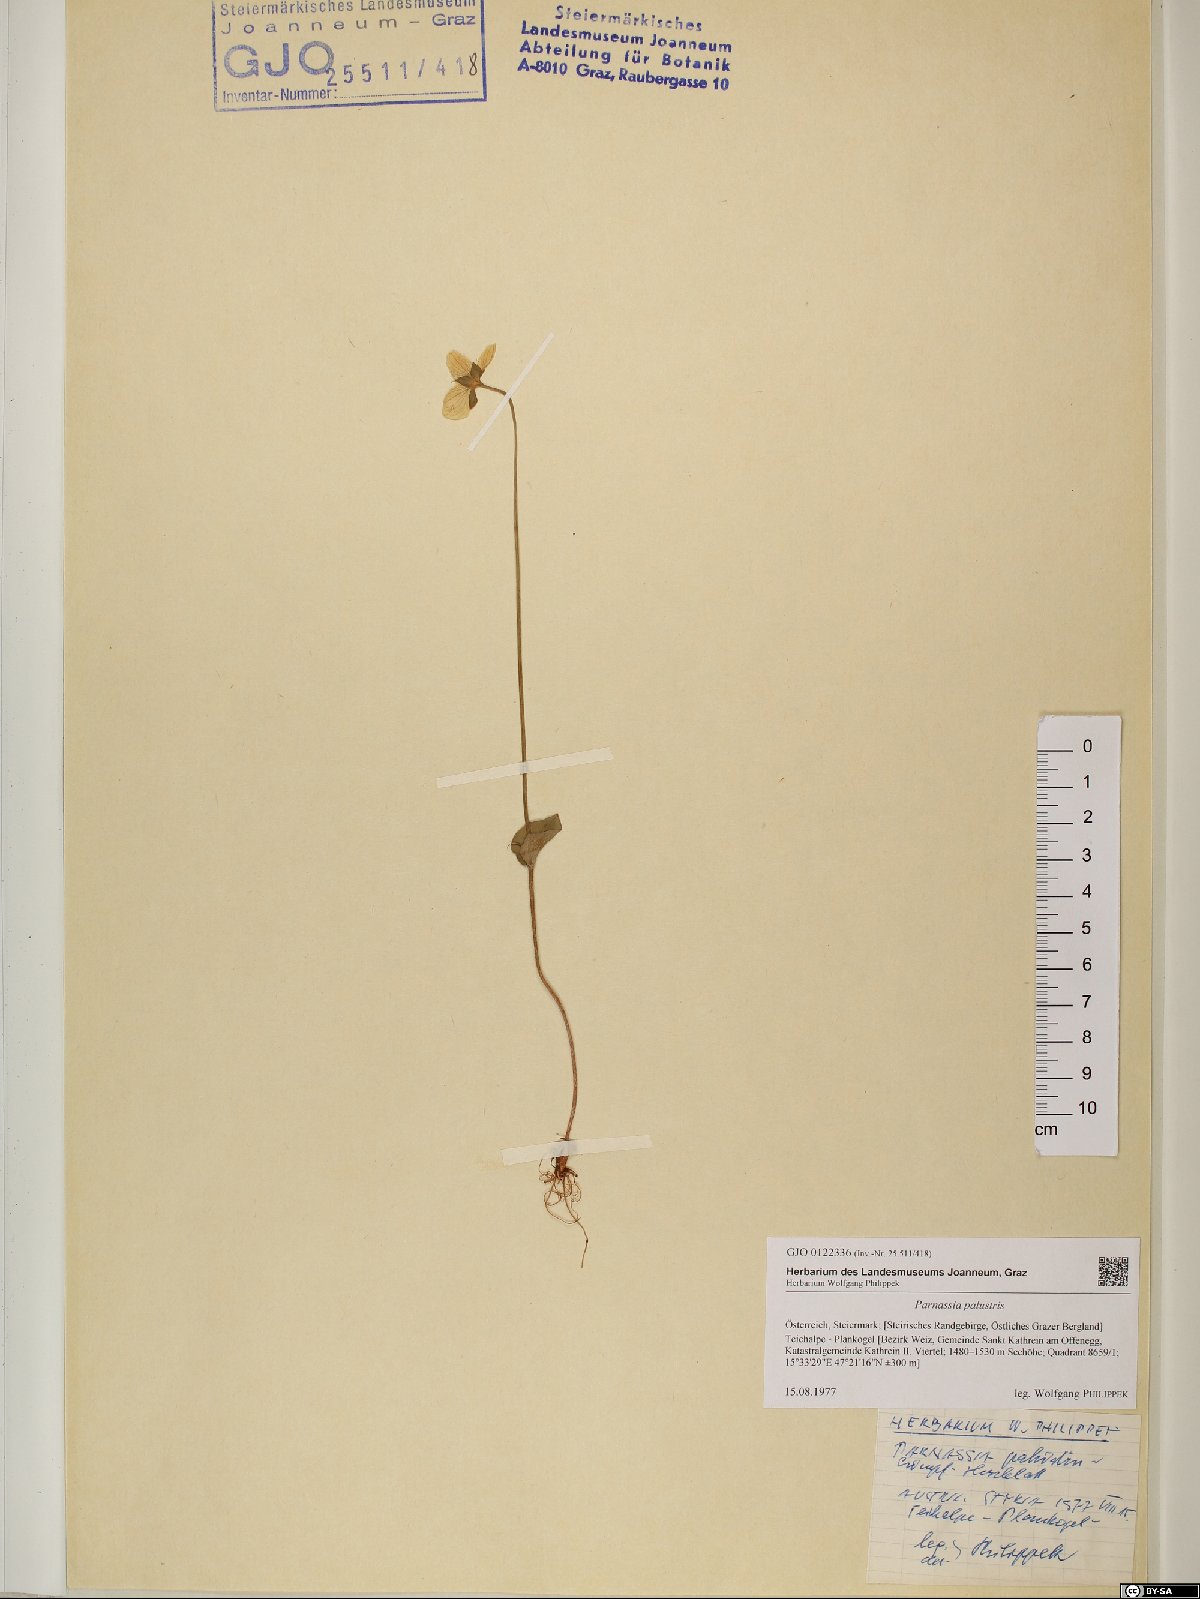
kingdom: Plantae
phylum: Tracheophyta
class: Magnoliopsida
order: Celastrales
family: Parnassiaceae
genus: Parnassia
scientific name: Parnassia palustris
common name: Grass-of-parnassus
